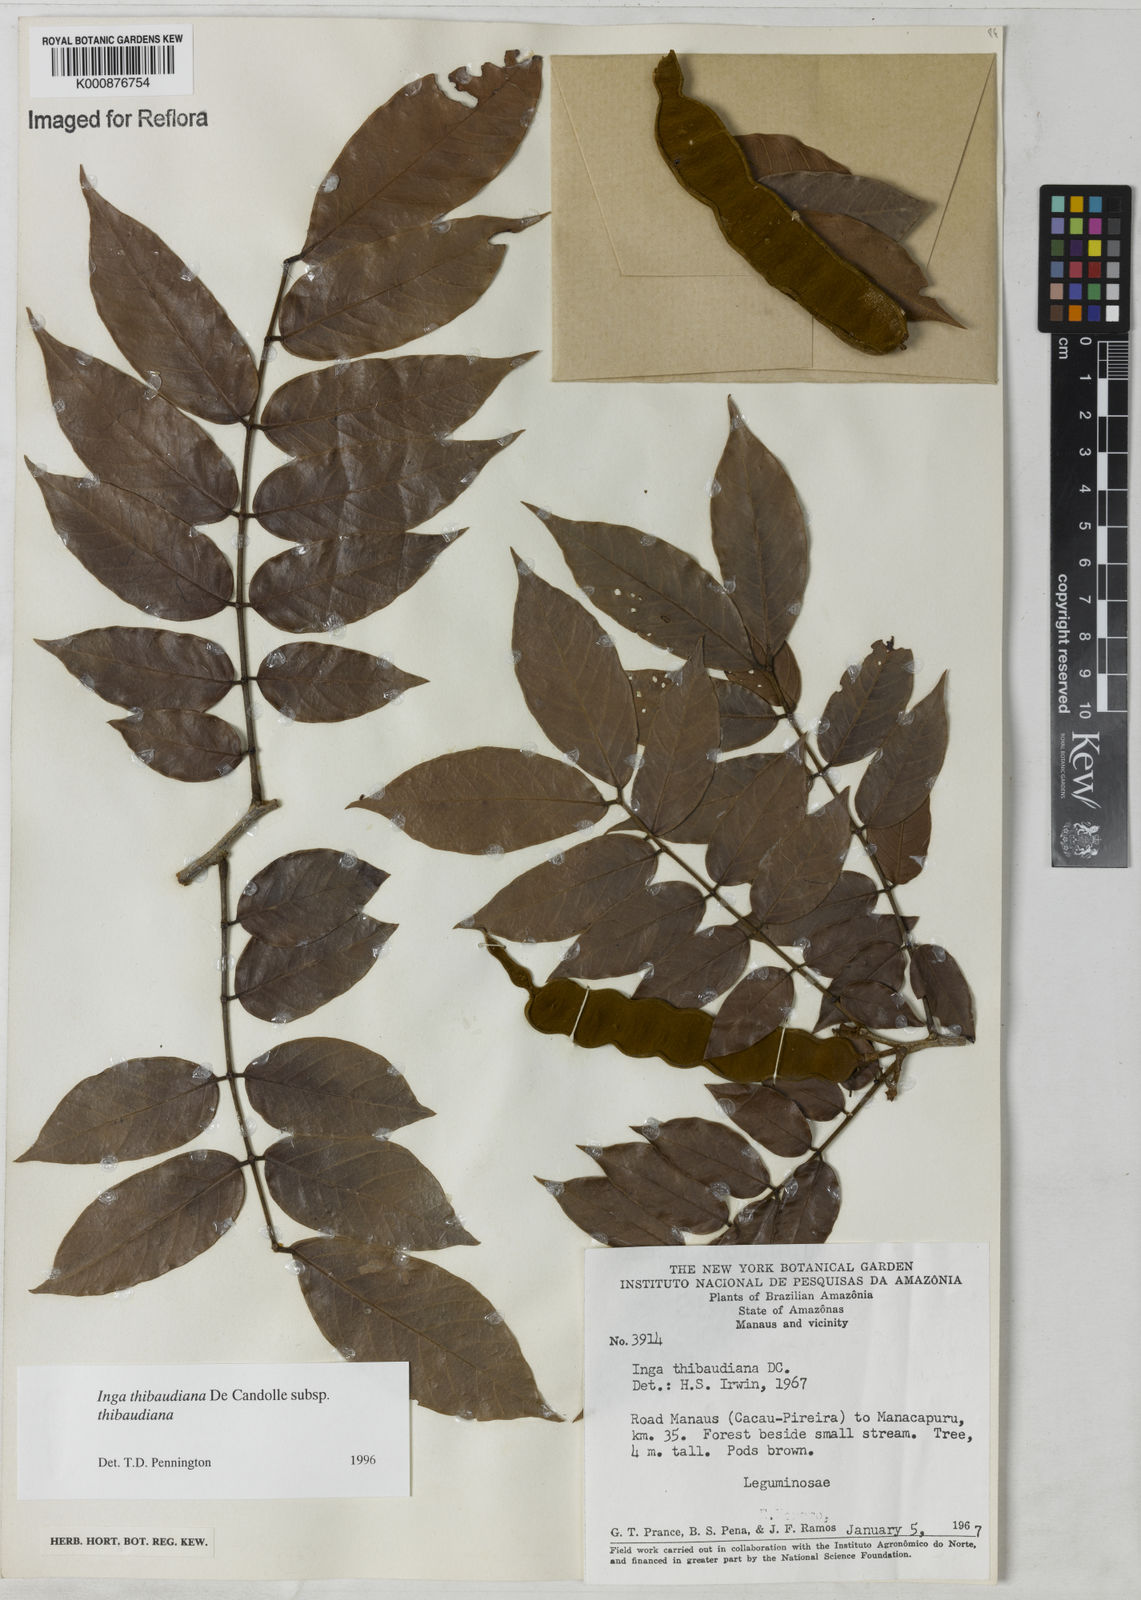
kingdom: Plantae
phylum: Tracheophyta
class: Magnoliopsida
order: Fabales
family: Fabaceae
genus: Inga
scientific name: Inga thibaudiana
